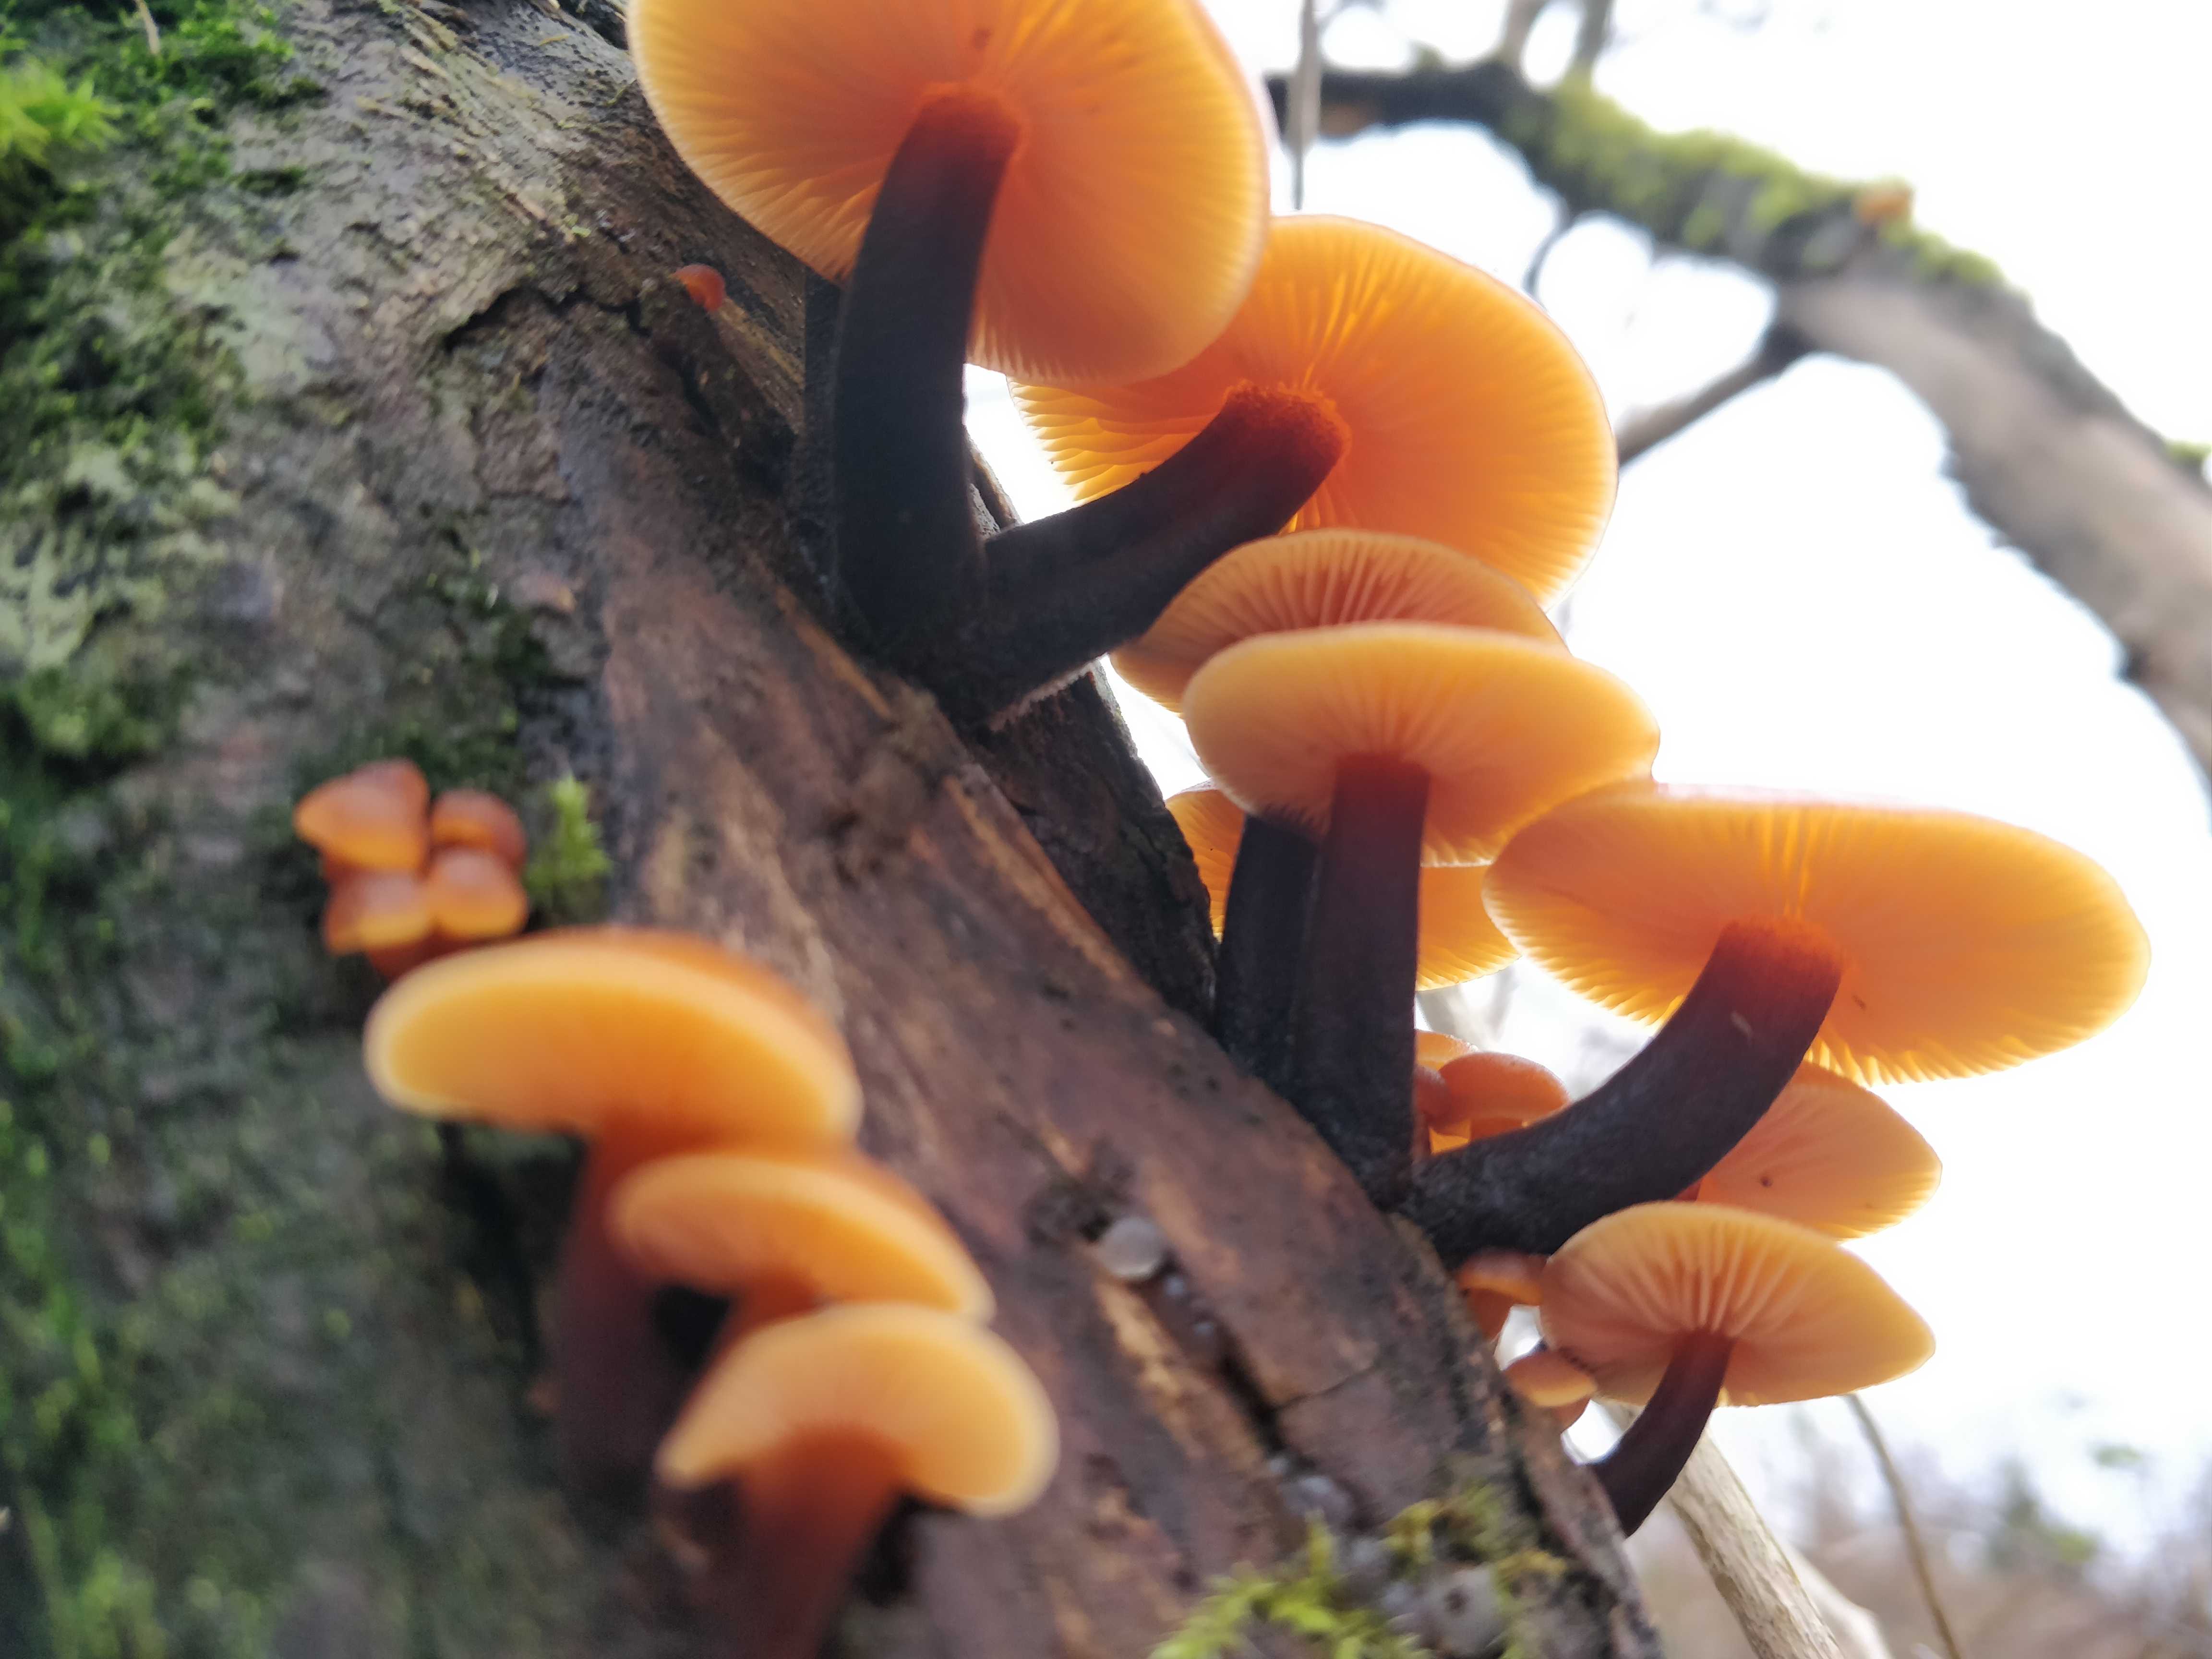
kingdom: Fungi
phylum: Basidiomycota
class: Agaricomycetes
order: Agaricales
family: Physalacriaceae
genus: Flammulina
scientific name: Flammulina
